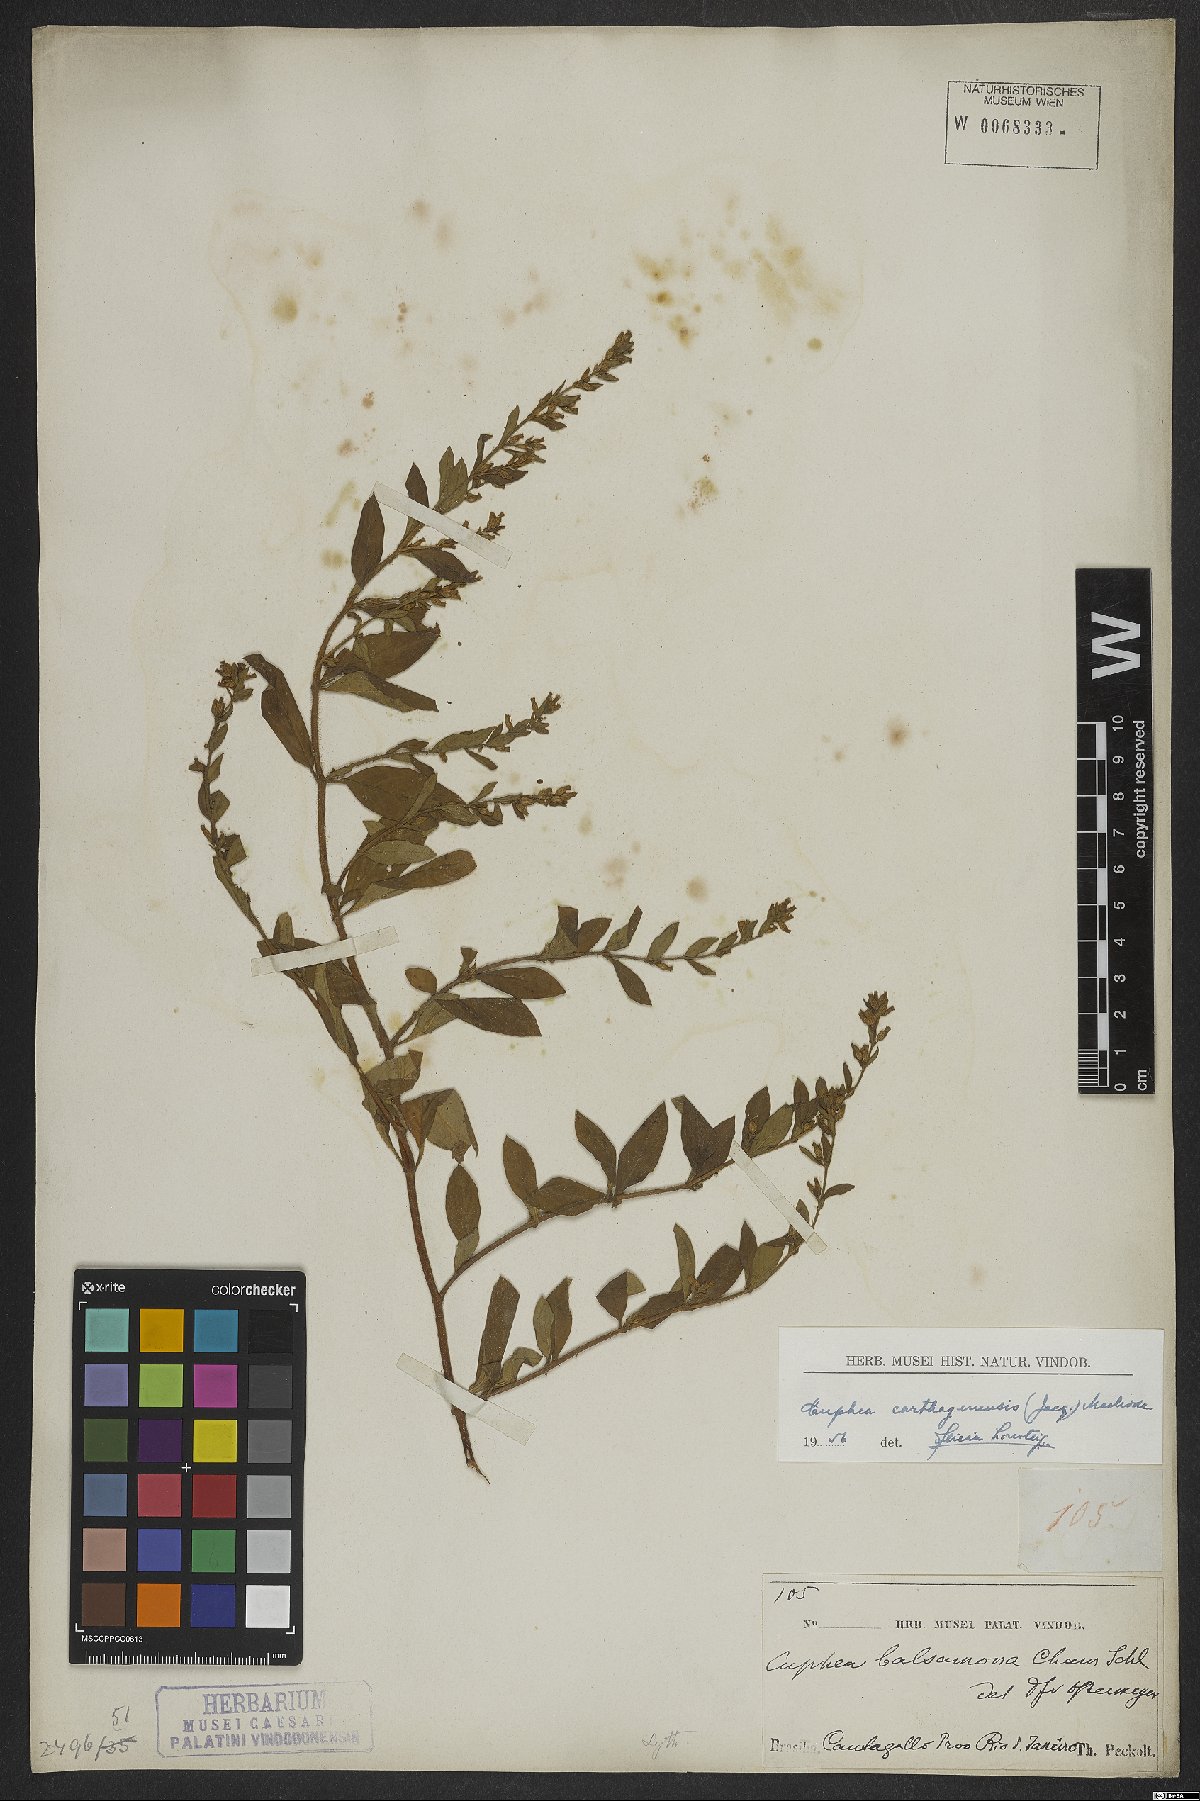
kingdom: Plantae
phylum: Tracheophyta
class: Magnoliopsida
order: Myrtales
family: Lythraceae
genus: Cuphea
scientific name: Cuphea carthagenensis
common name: Colombian waxweed
